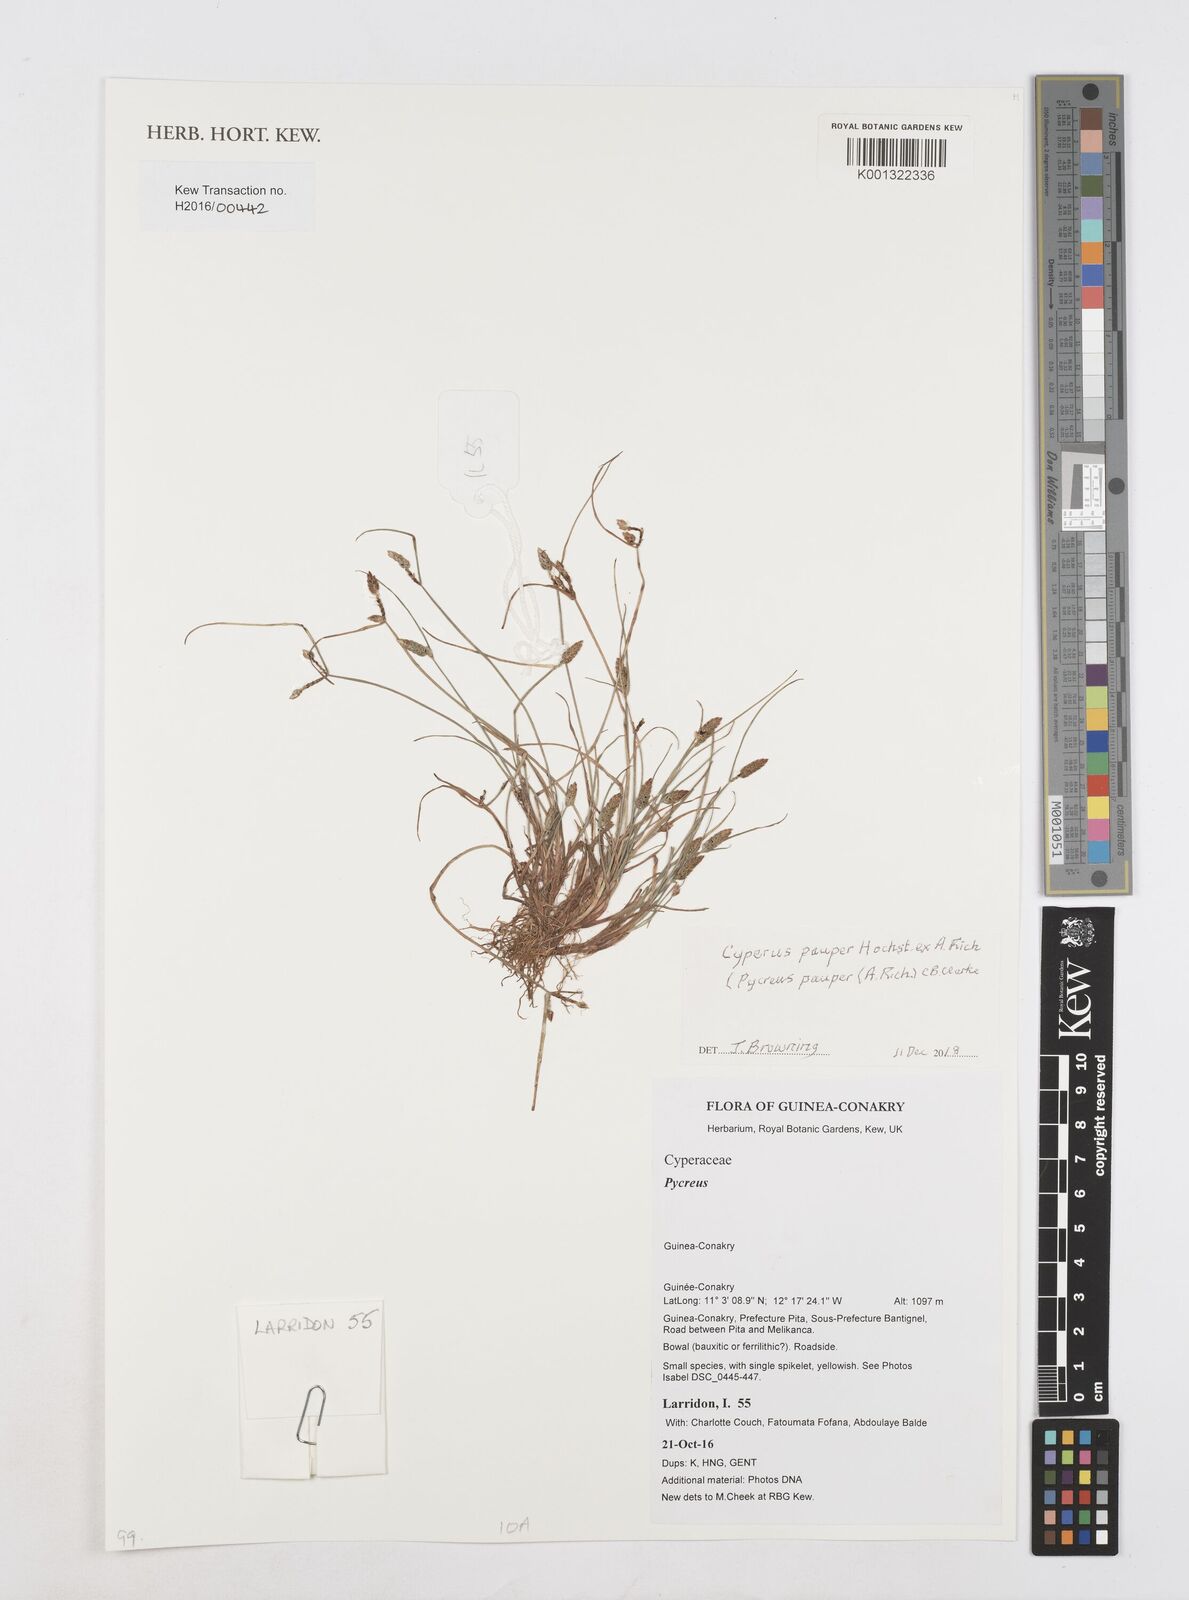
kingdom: Plantae
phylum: Tracheophyta
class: Liliopsida
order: Poales
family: Cyperaceae
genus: Cyperus
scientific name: Cyperus pauper
